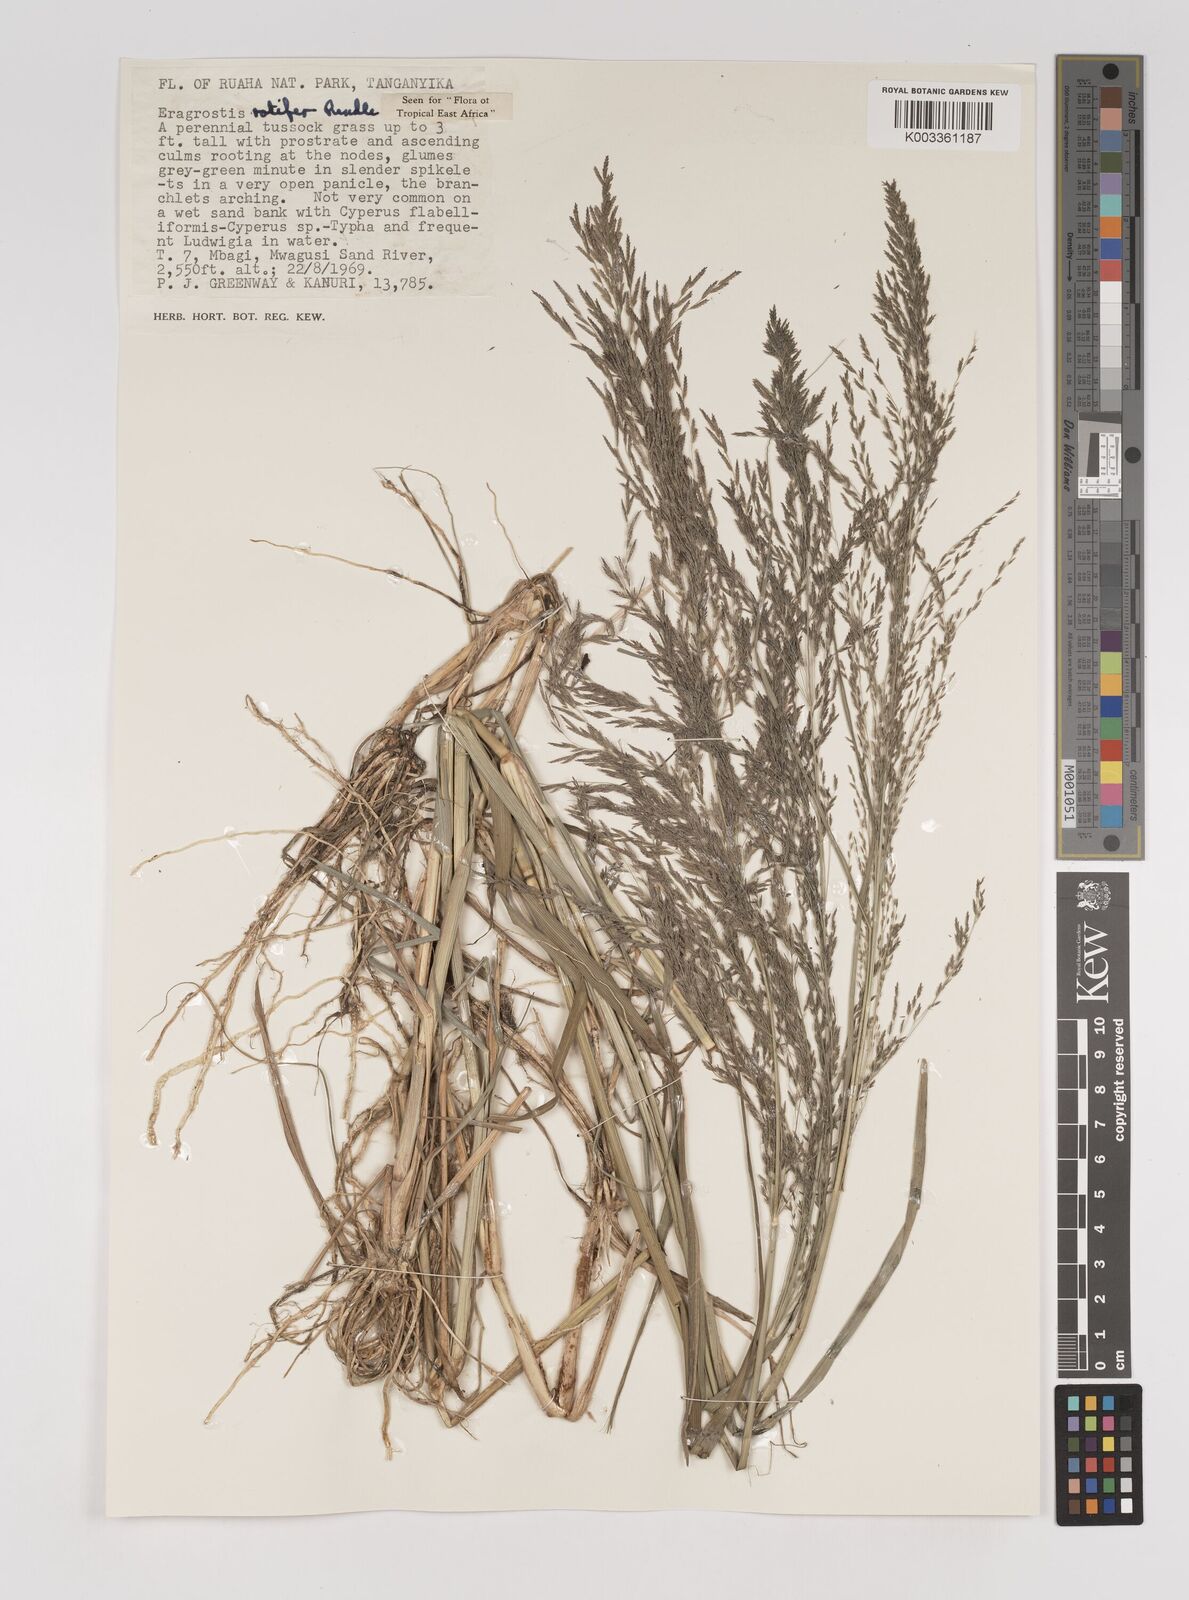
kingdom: Plantae
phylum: Tracheophyta
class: Liliopsida
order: Poales
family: Poaceae
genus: Eragrostis
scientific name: Eragrostis rotifer
